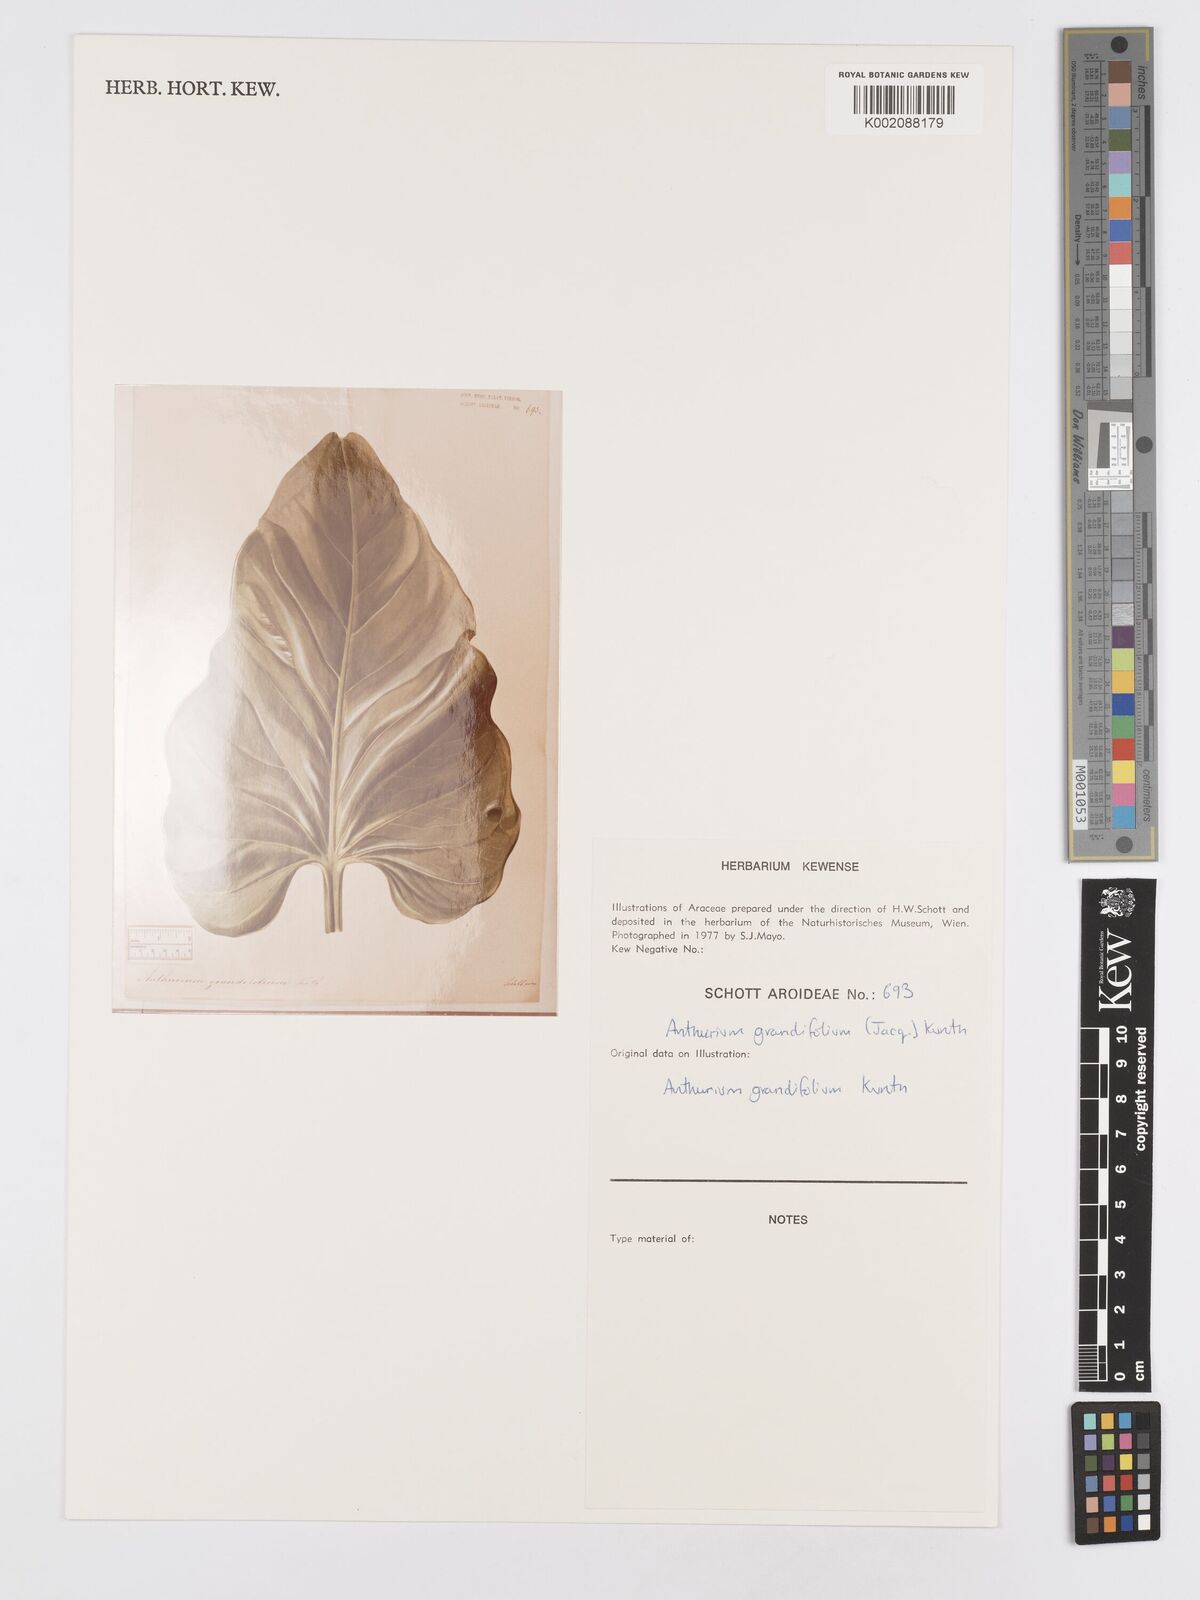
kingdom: Plantae
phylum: Tracheophyta
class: Liliopsida
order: Alismatales
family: Araceae
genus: Anthurium
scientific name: Anthurium grandifolium
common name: Monkey tail
